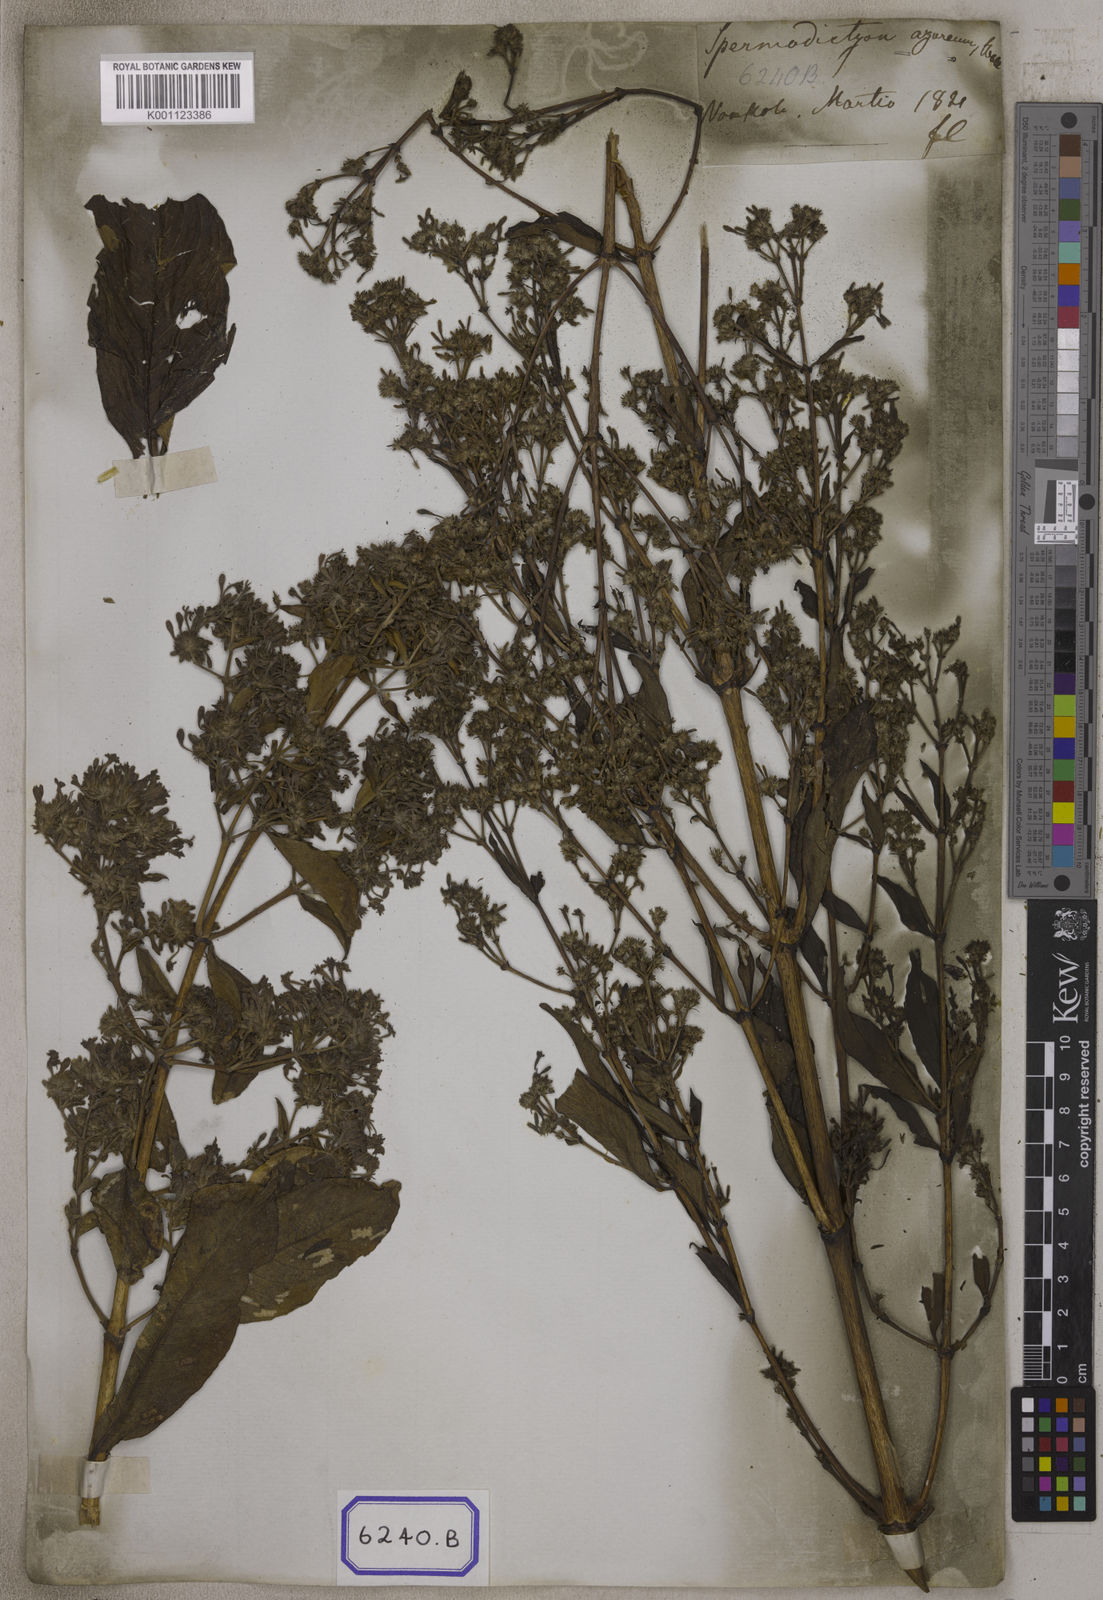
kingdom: Plantae
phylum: Tracheophyta
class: Magnoliopsida
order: Gentianales
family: Rubiaceae
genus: Spermadictyon
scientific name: Spermadictyon suaveolens
